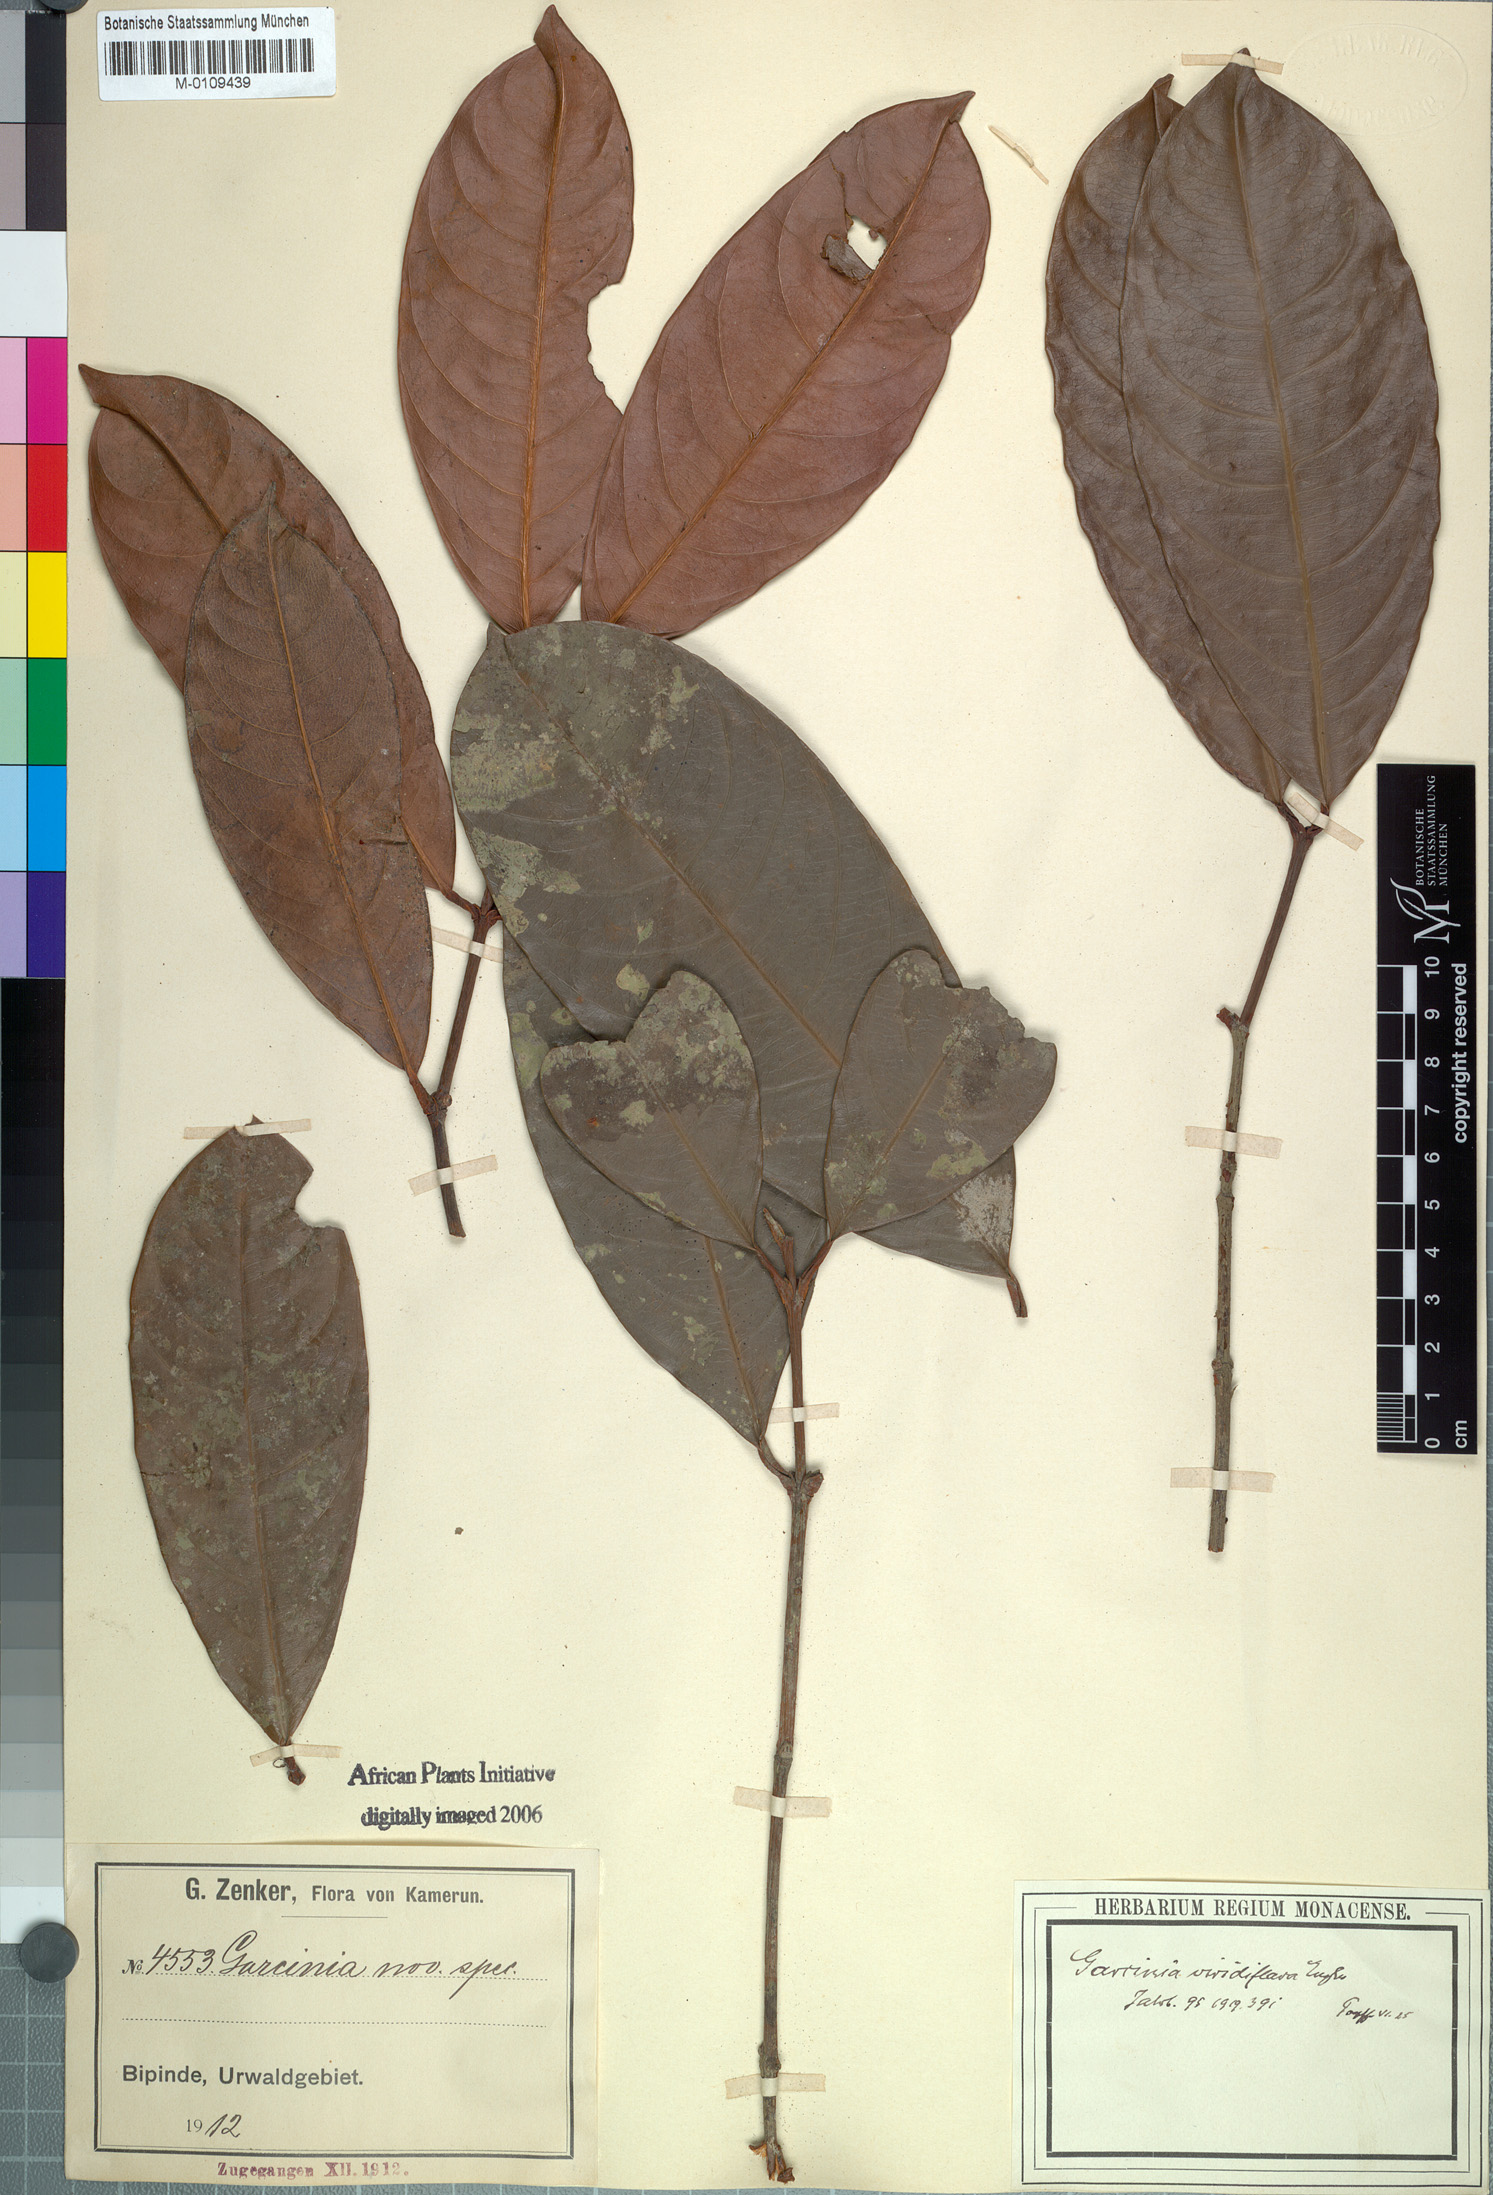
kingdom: Plantae
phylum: Tracheophyta
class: Magnoliopsida
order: Malpighiales
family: Clusiaceae
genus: Garcinia
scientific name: Garcinia smeathmannii
